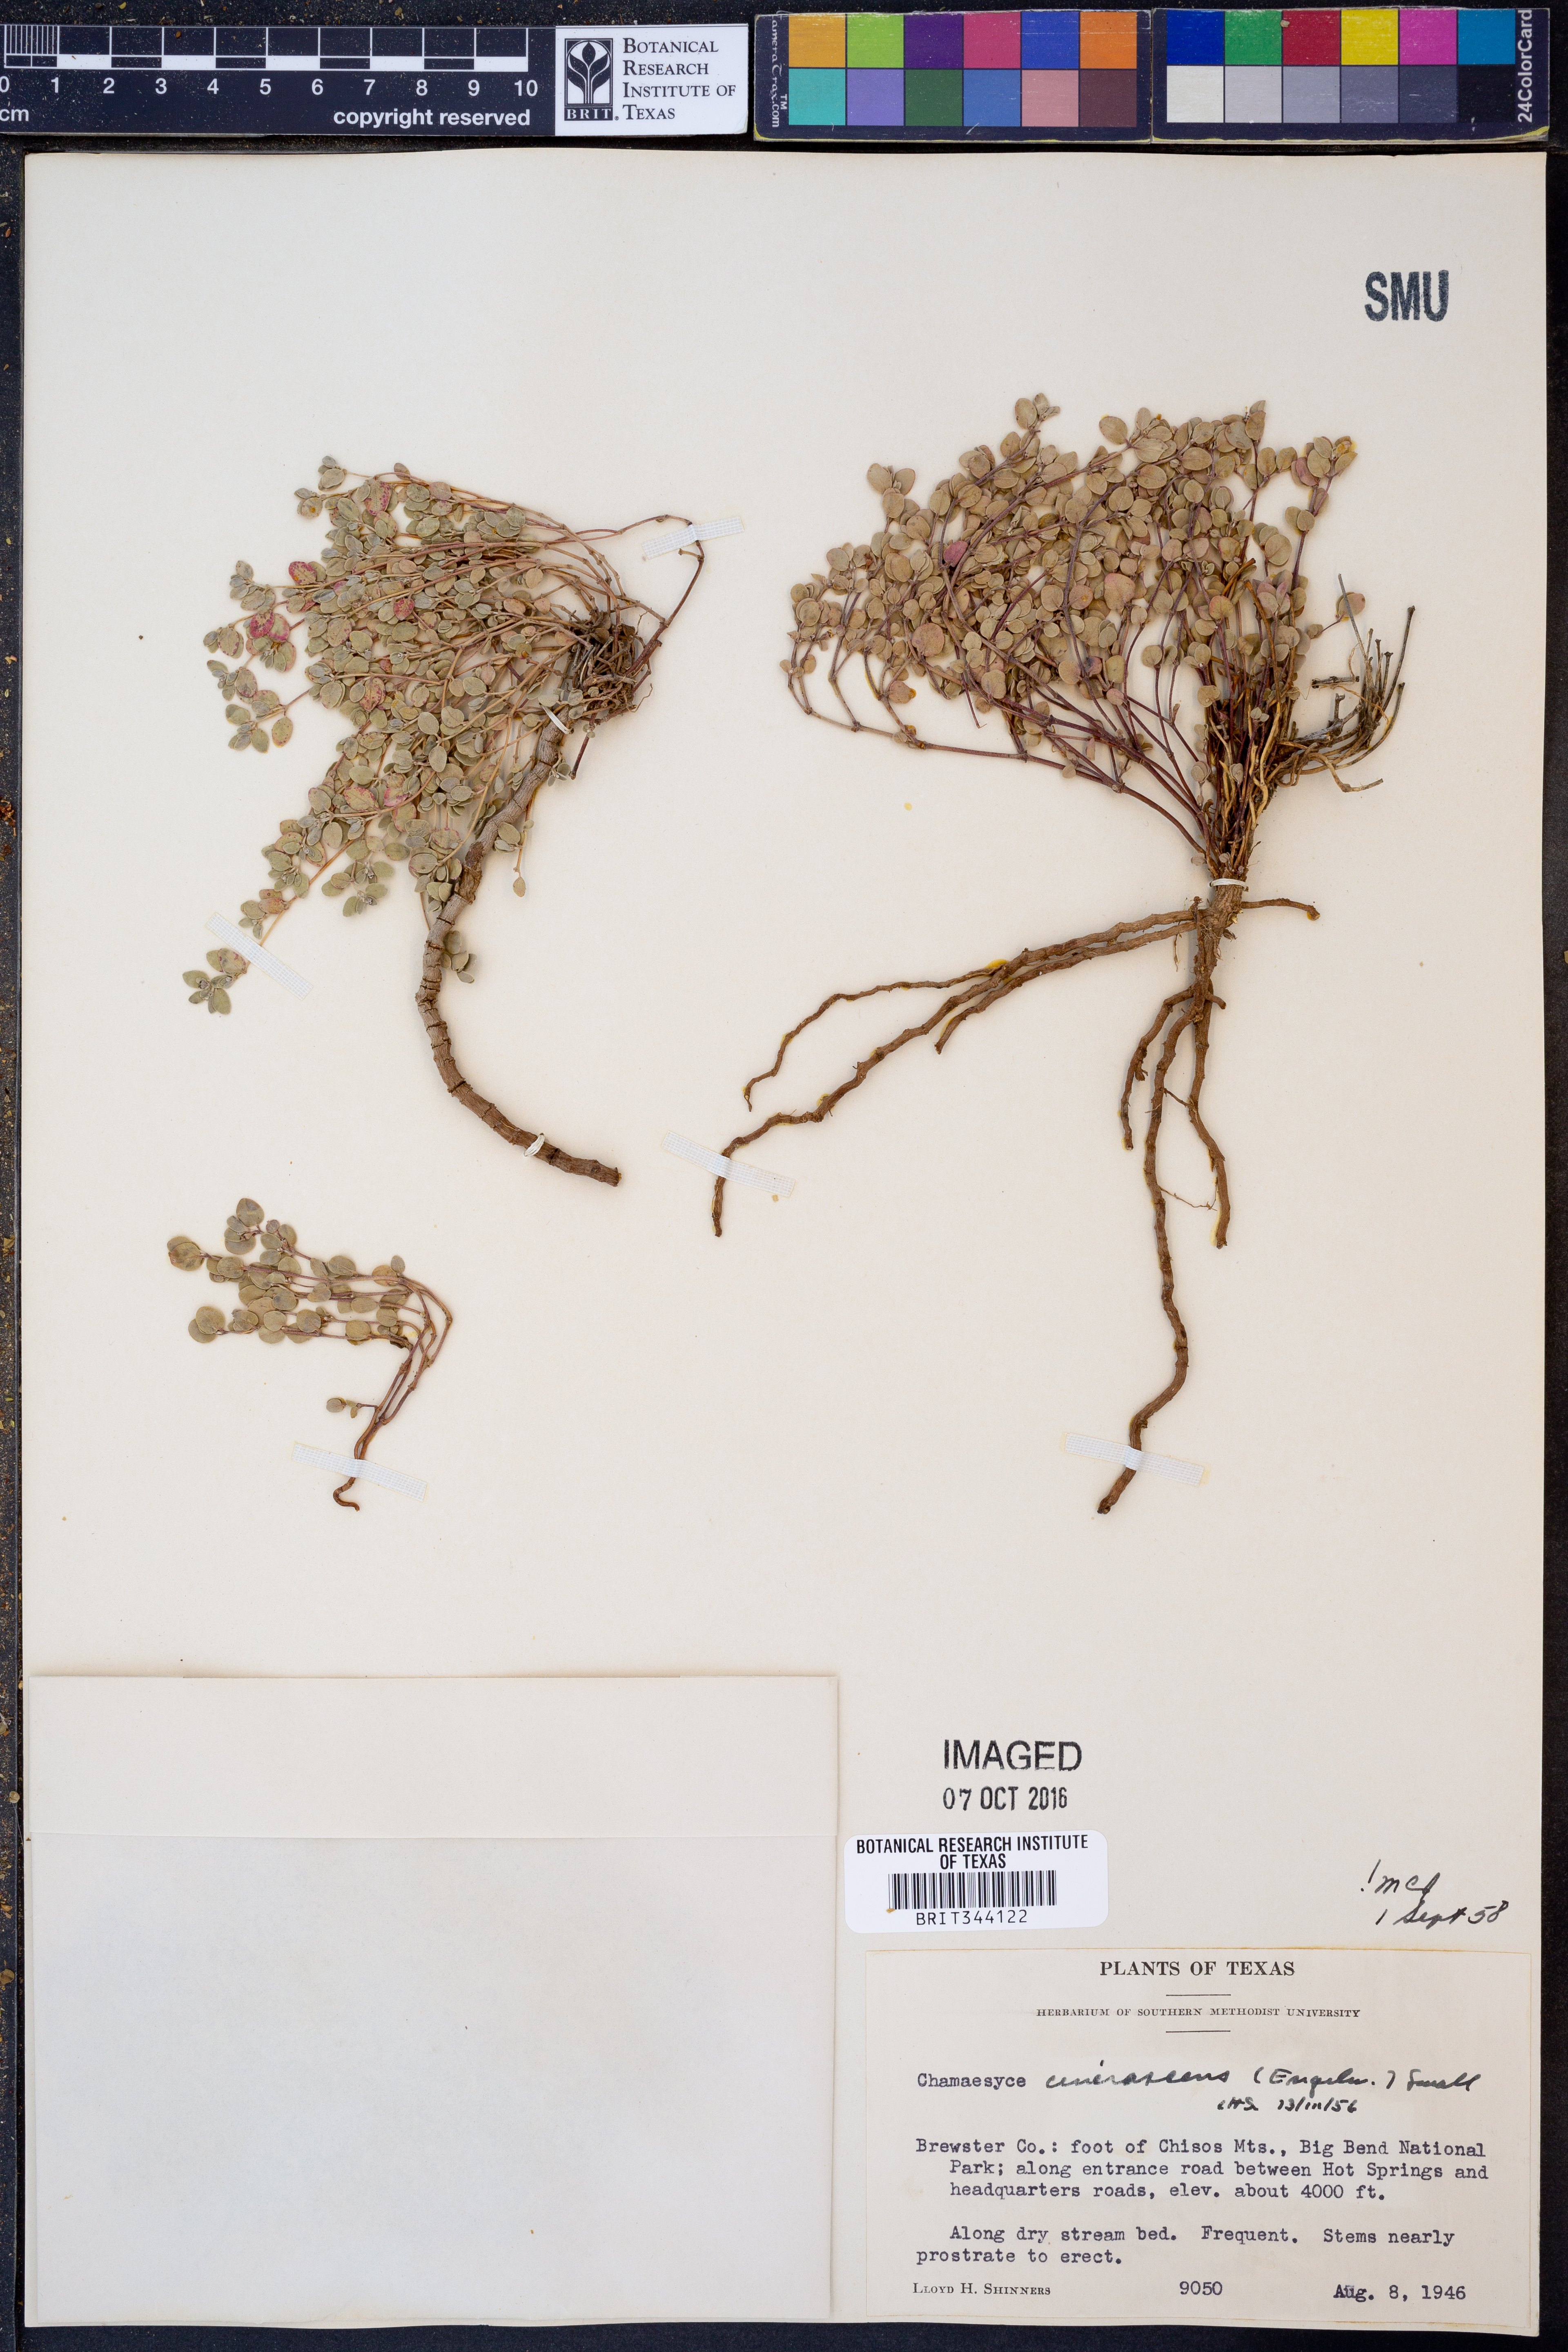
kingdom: Plantae
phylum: Tracheophyta
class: Magnoliopsida
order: Malpighiales
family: Euphorbiaceae
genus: Euphorbia
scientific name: Euphorbia cinerascens
